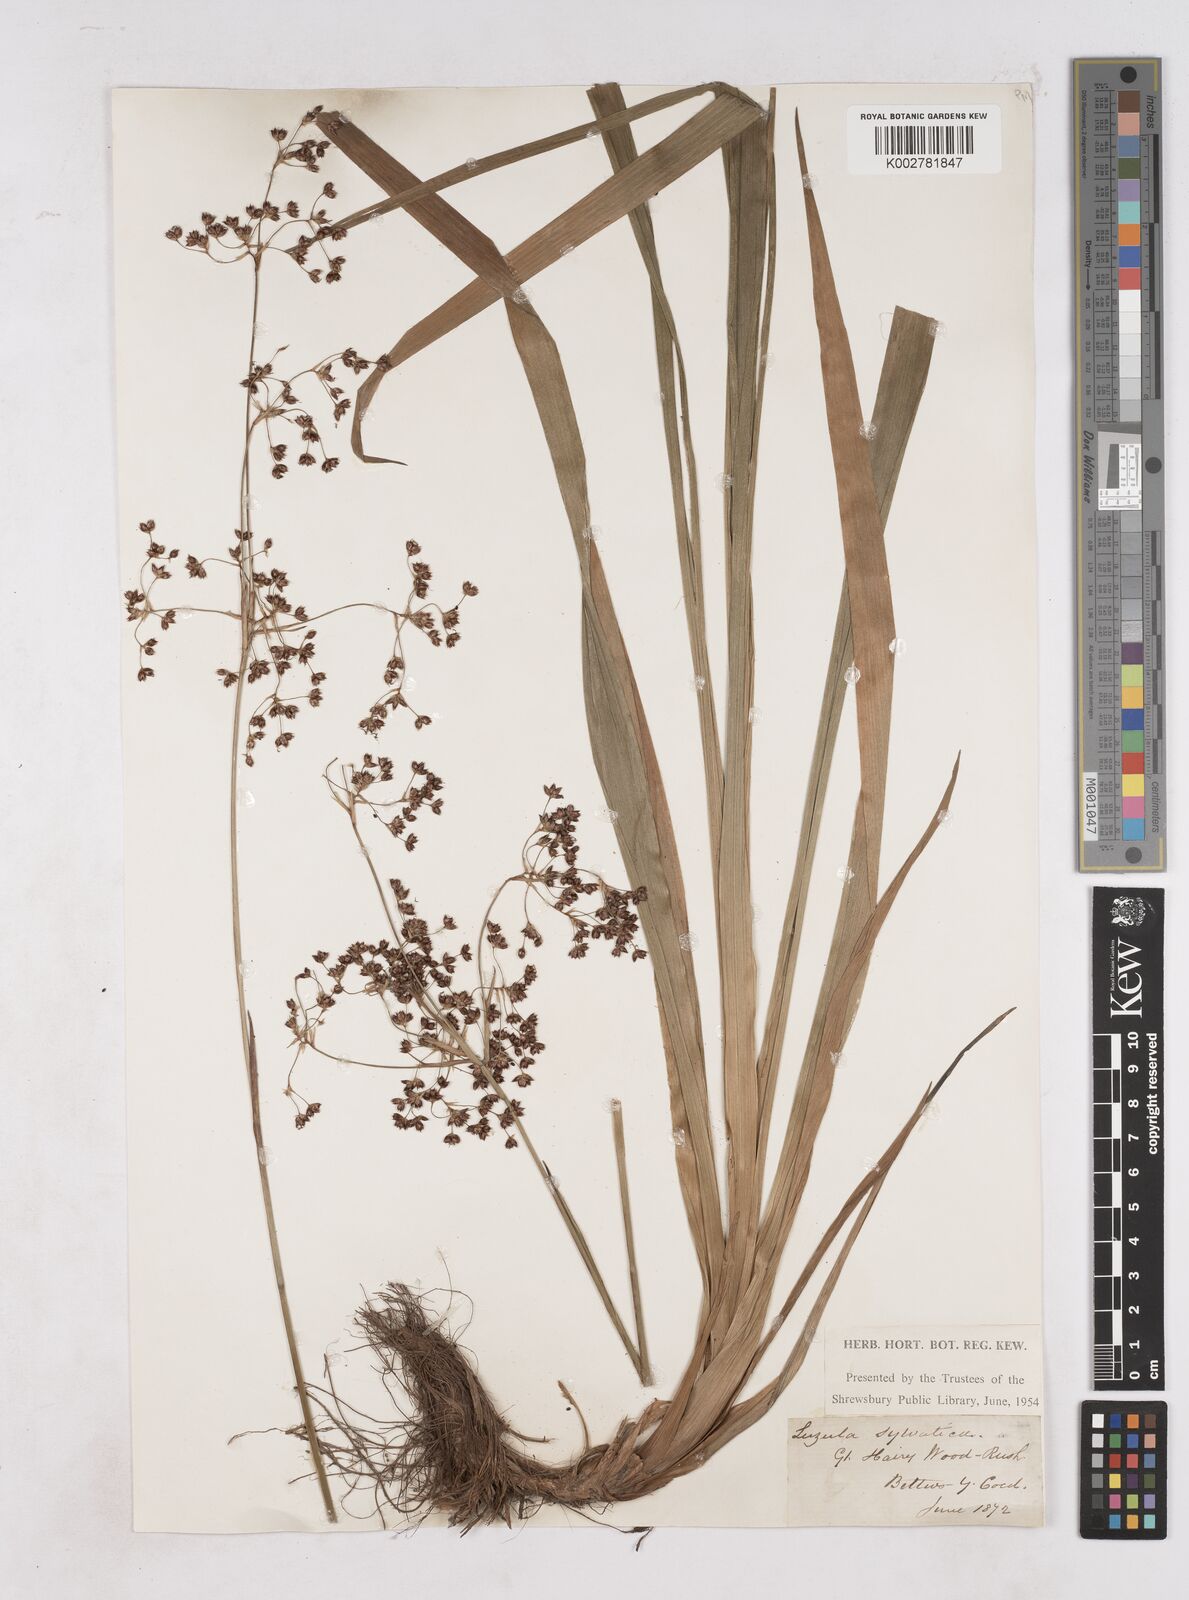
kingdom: Plantae
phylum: Tracheophyta
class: Liliopsida
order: Poales
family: Juncaceae
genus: Luzula
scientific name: Luzula sylvatica
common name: Great wood-rush
